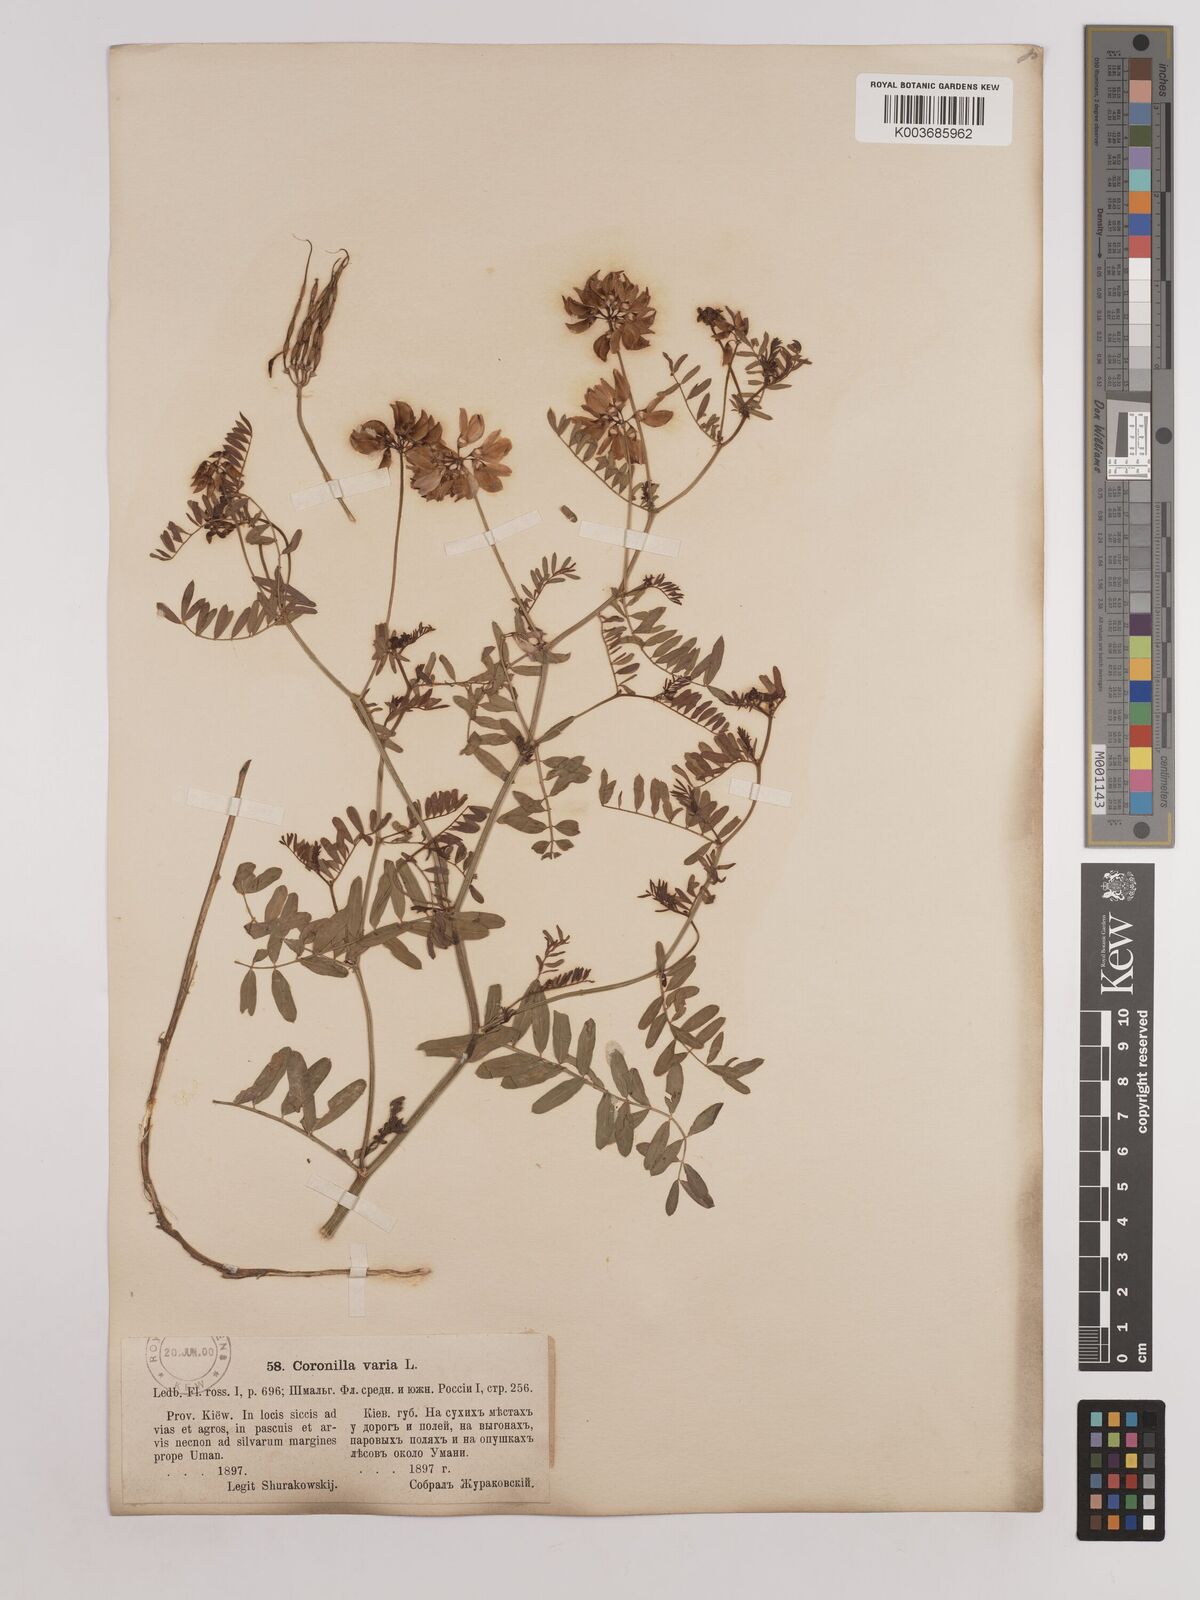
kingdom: Plantae
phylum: Tracheophyta
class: Magnoliopsida
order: Fabales
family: Fabaceae
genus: Coronilla
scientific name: Coronilla varia
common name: Crownvetch
